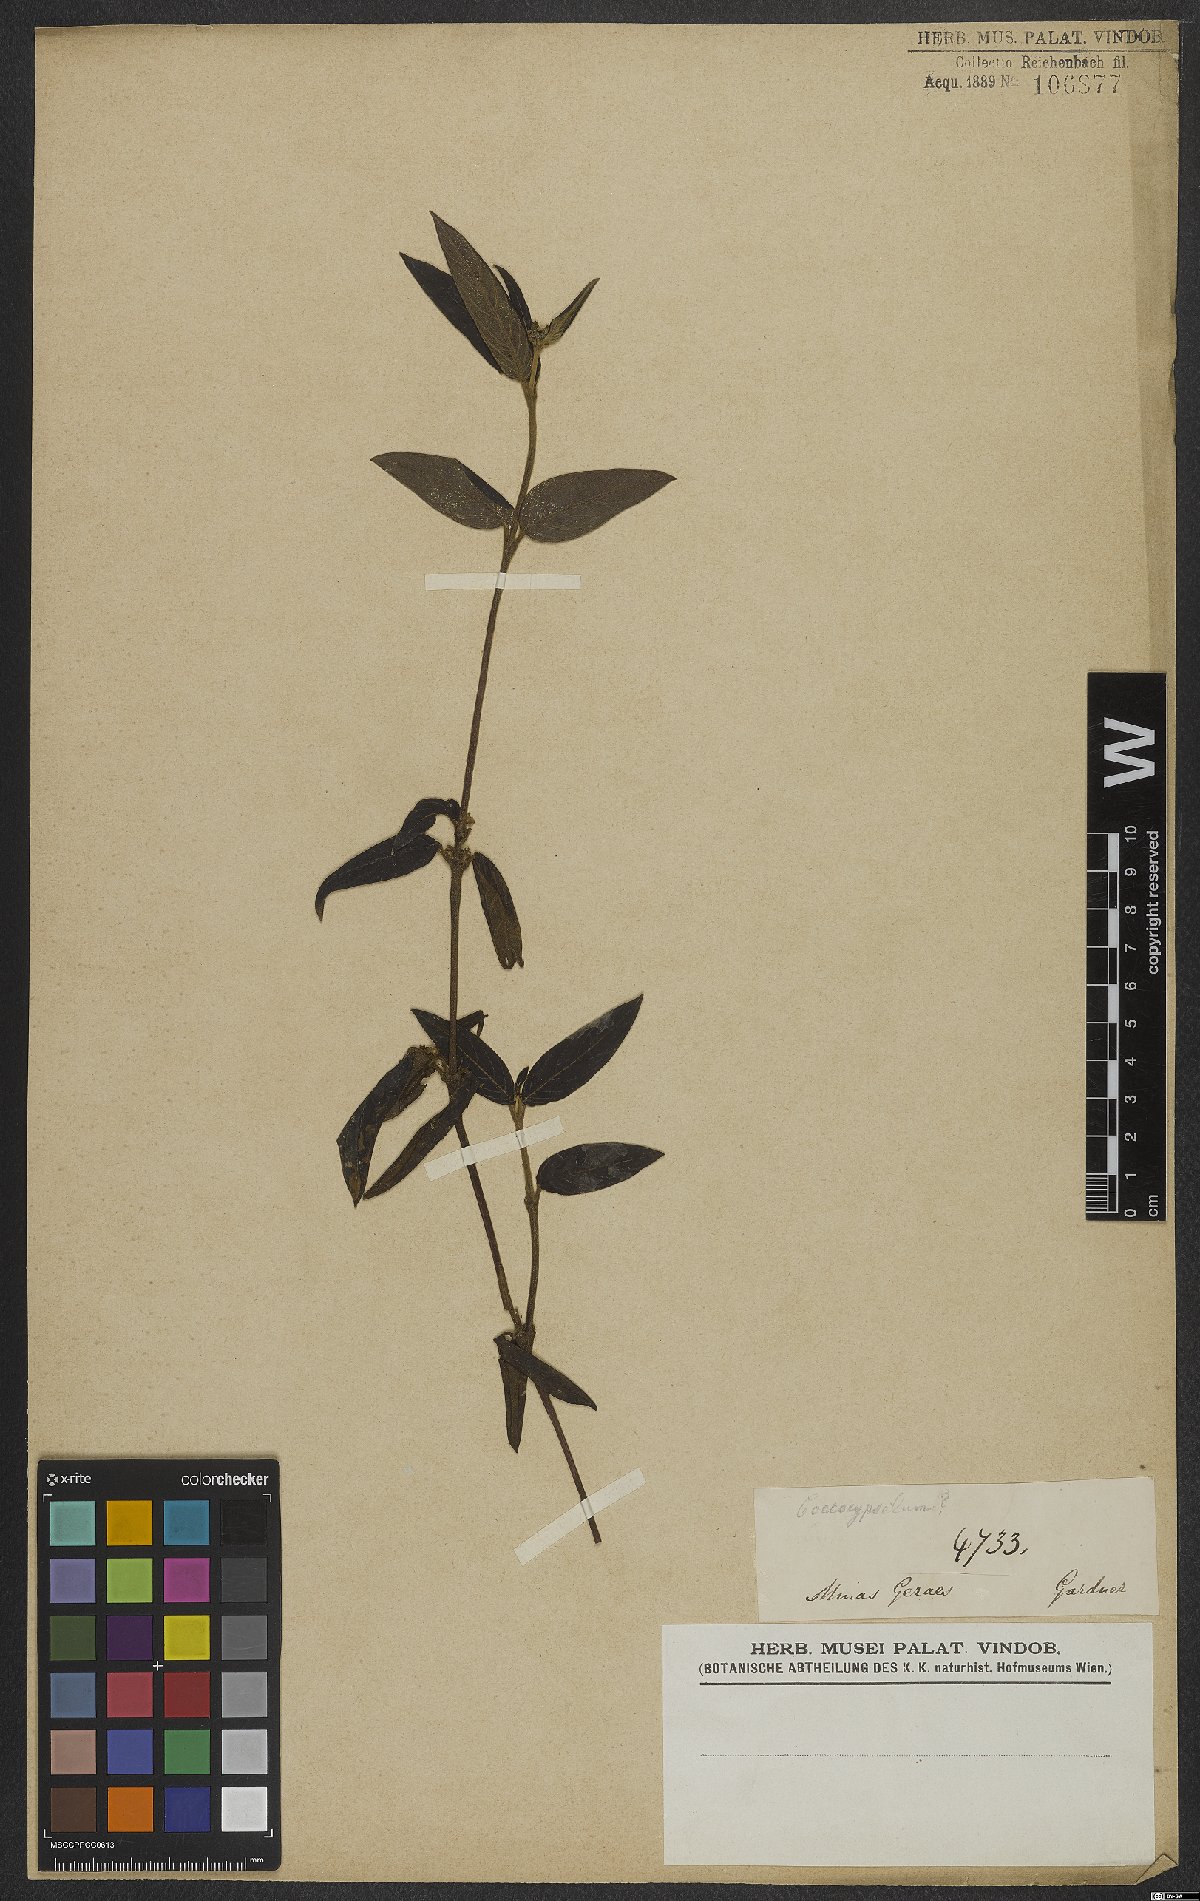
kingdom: Plantae
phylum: Tracheophyta
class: Magnoliopsida
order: Gentianales
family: Rubiaceae
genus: Coccocypselum
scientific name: Coccocypselum
